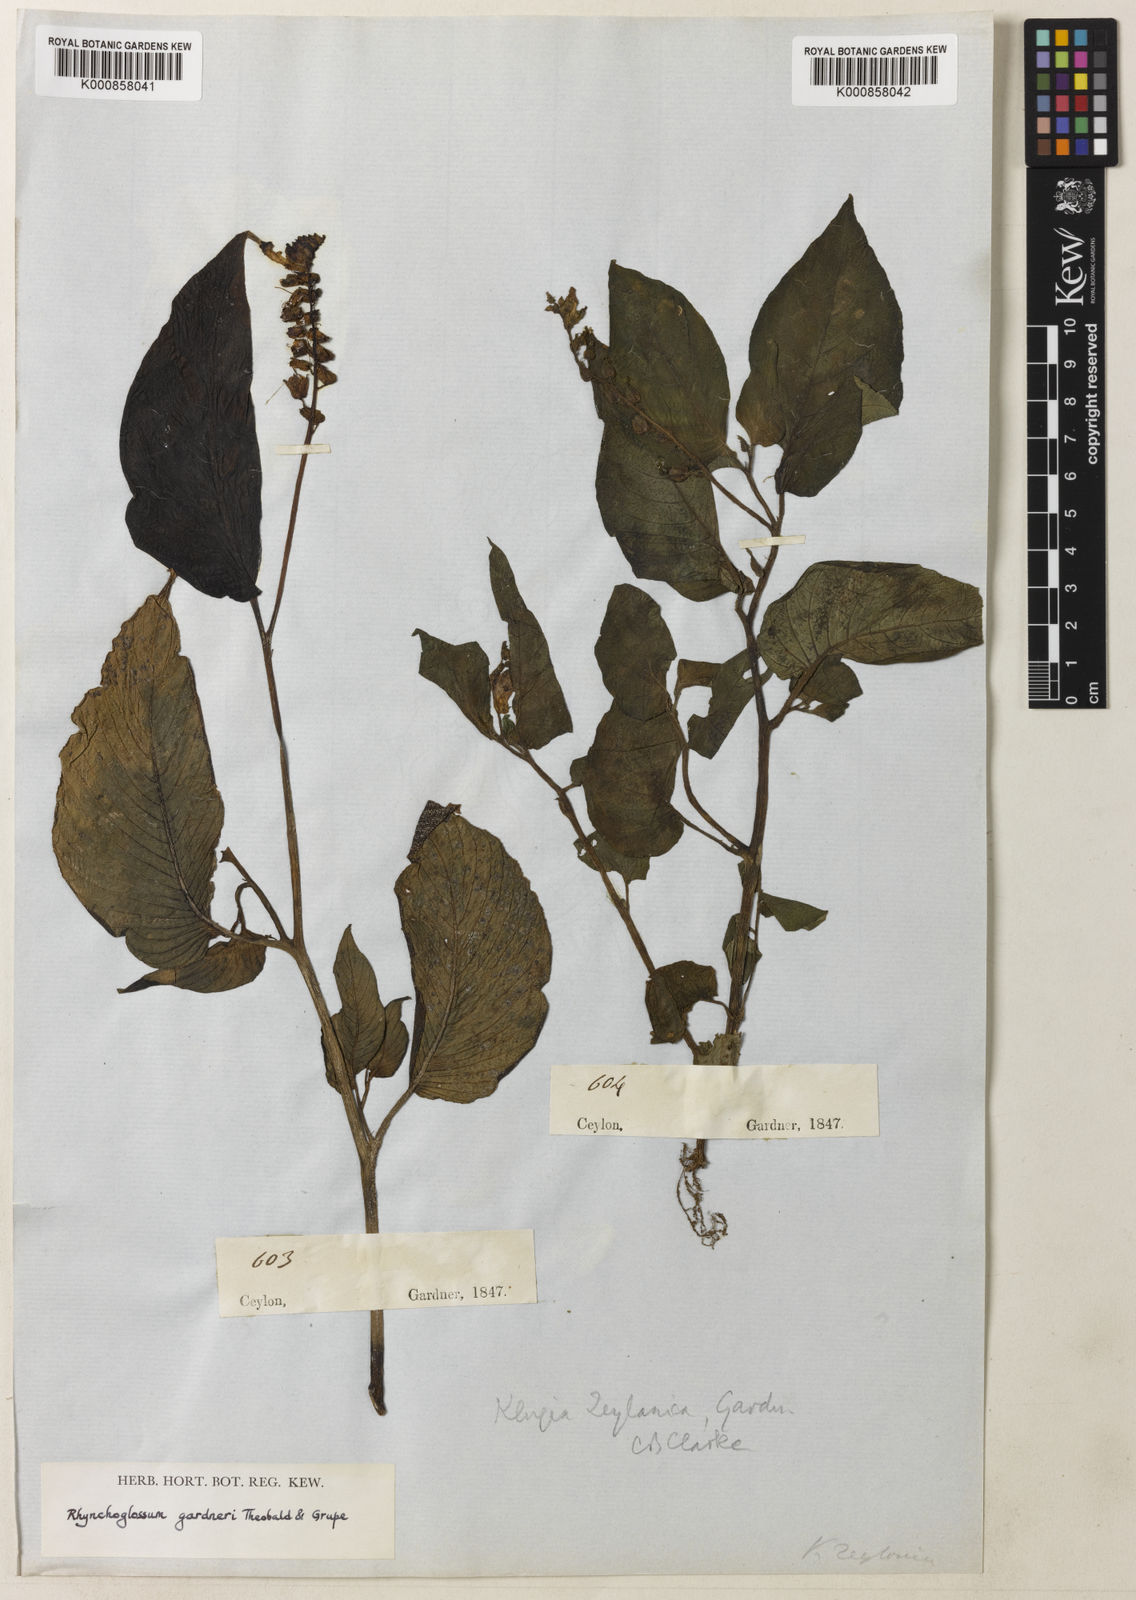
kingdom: Plantae
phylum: Tracheophyta
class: Magnoliopsida
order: Lamiales
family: Gesneriaceae
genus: Rhynchoglossum
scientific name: Rhynchoglossum gardneri
